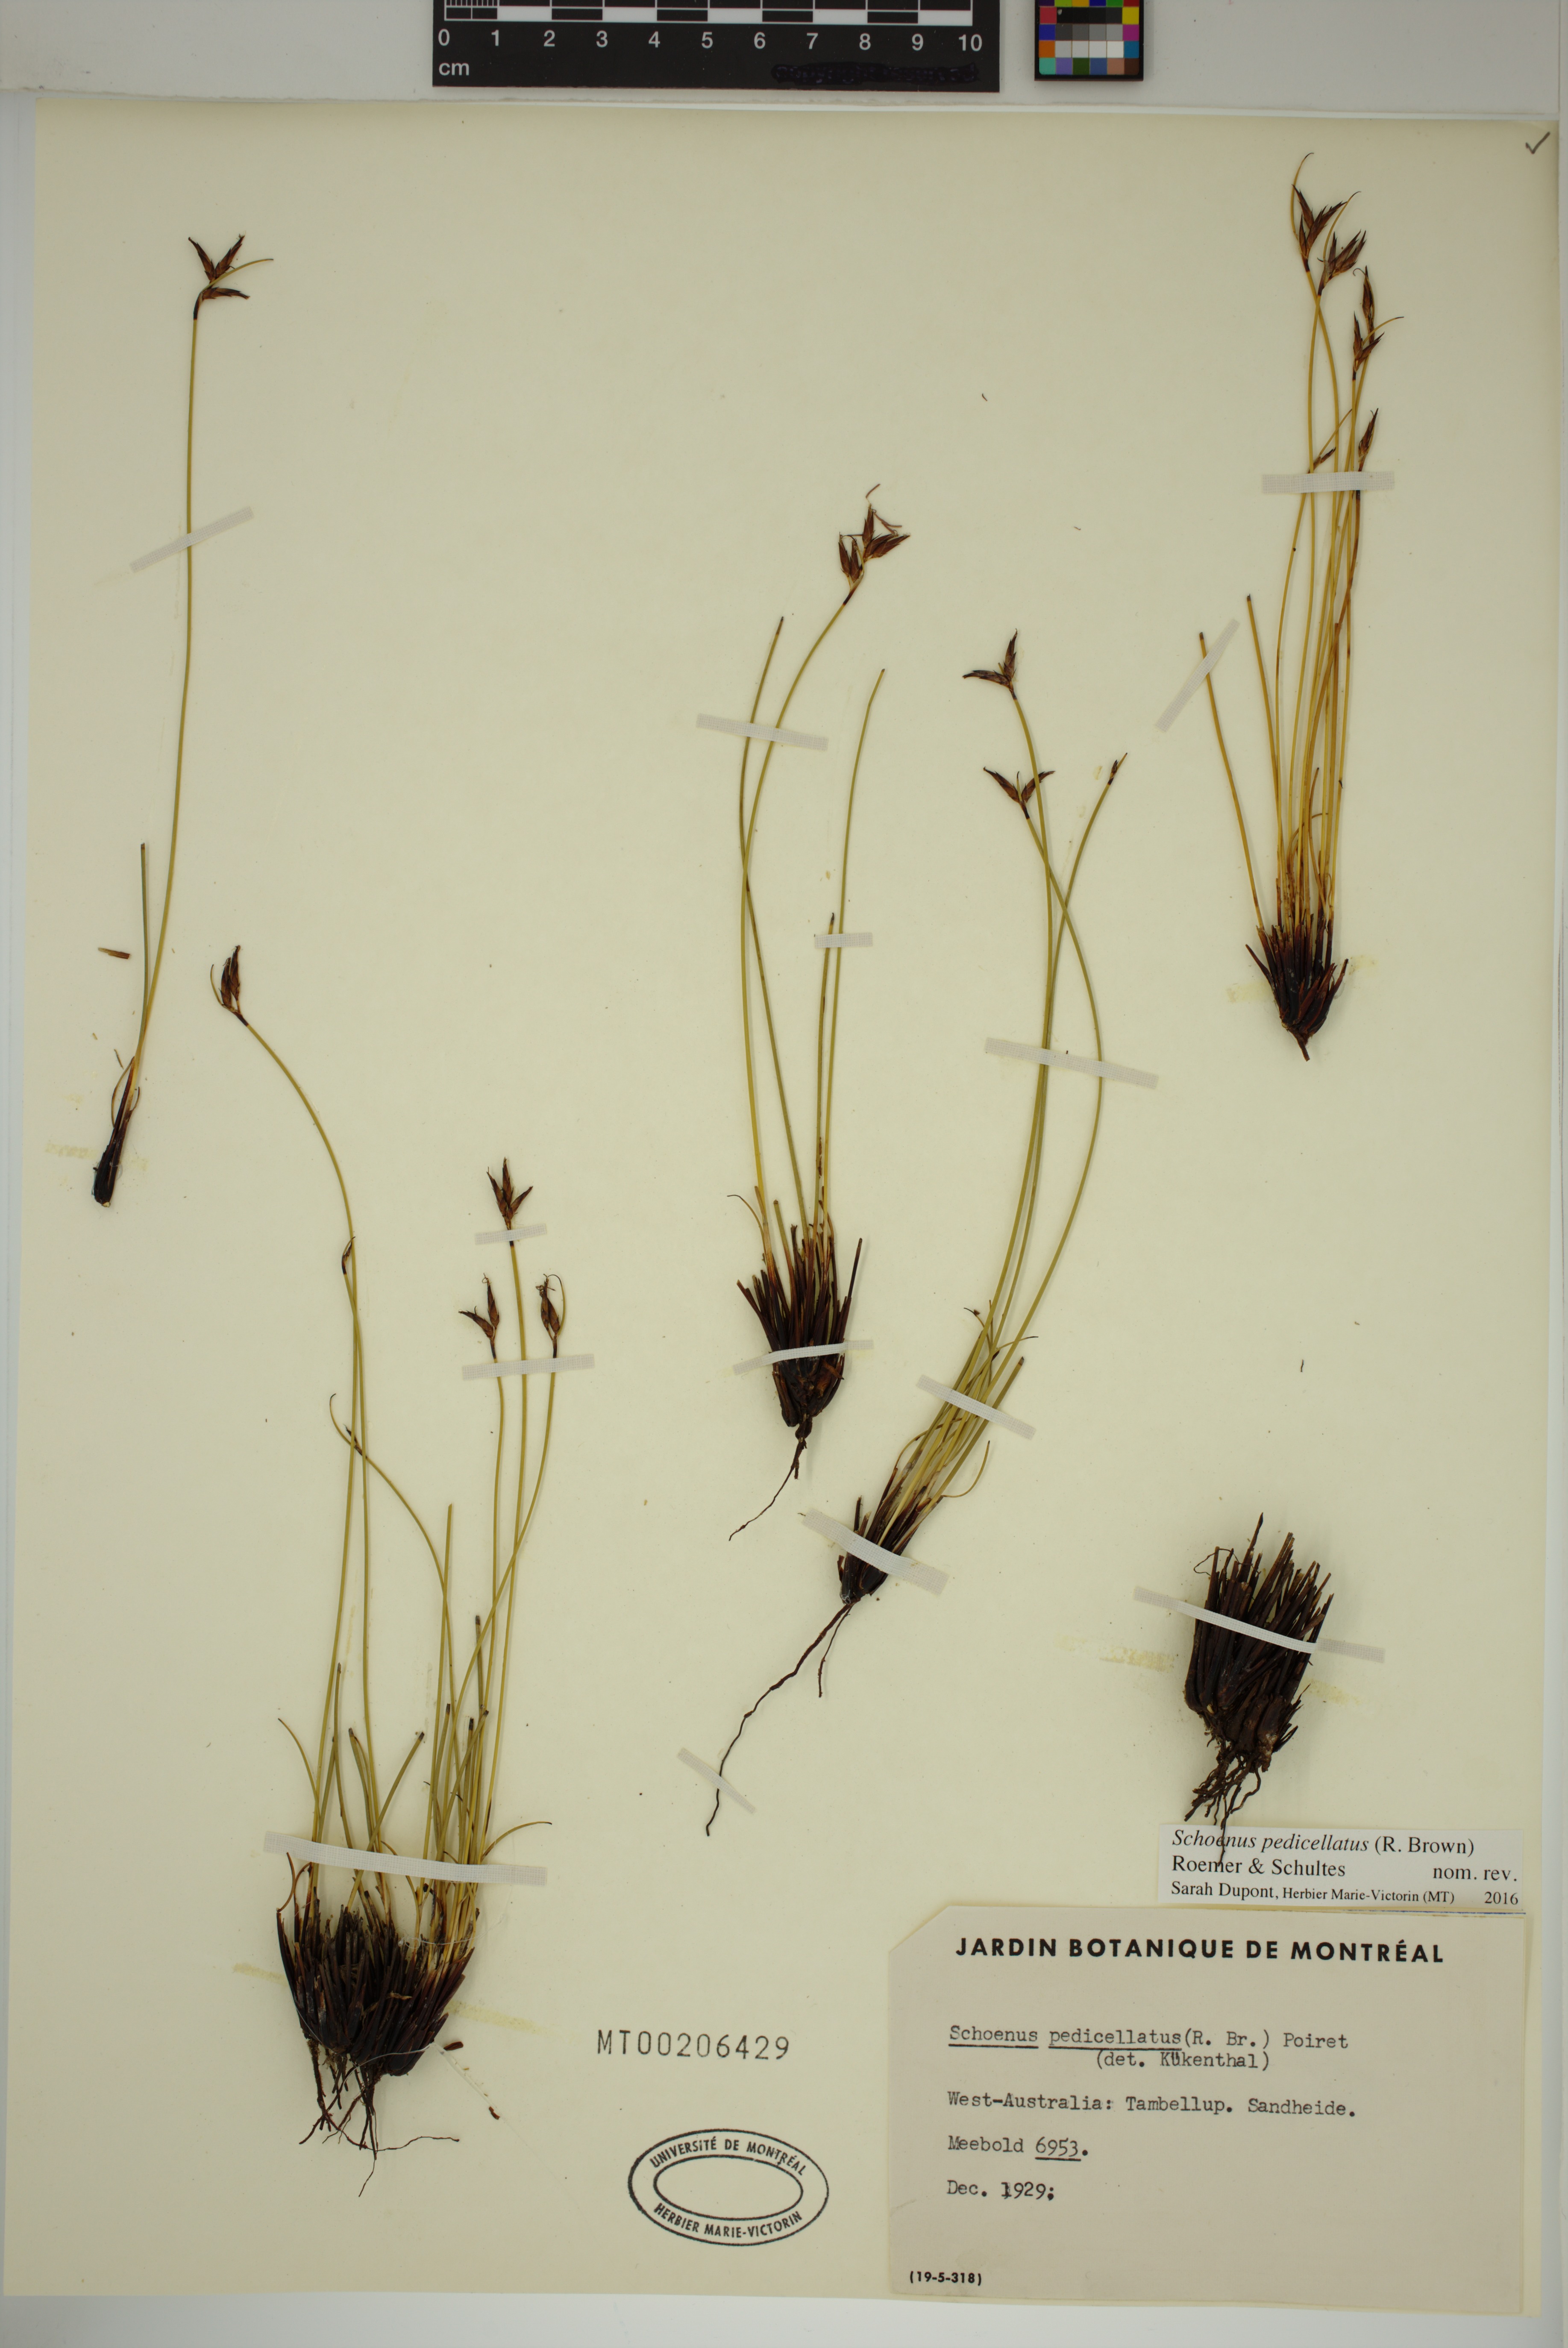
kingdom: Plantae
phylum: Tracheophyta
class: Liliopsida
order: Poales
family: Cyperaceae
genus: Schoenus
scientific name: Schoenus pedicellatus
